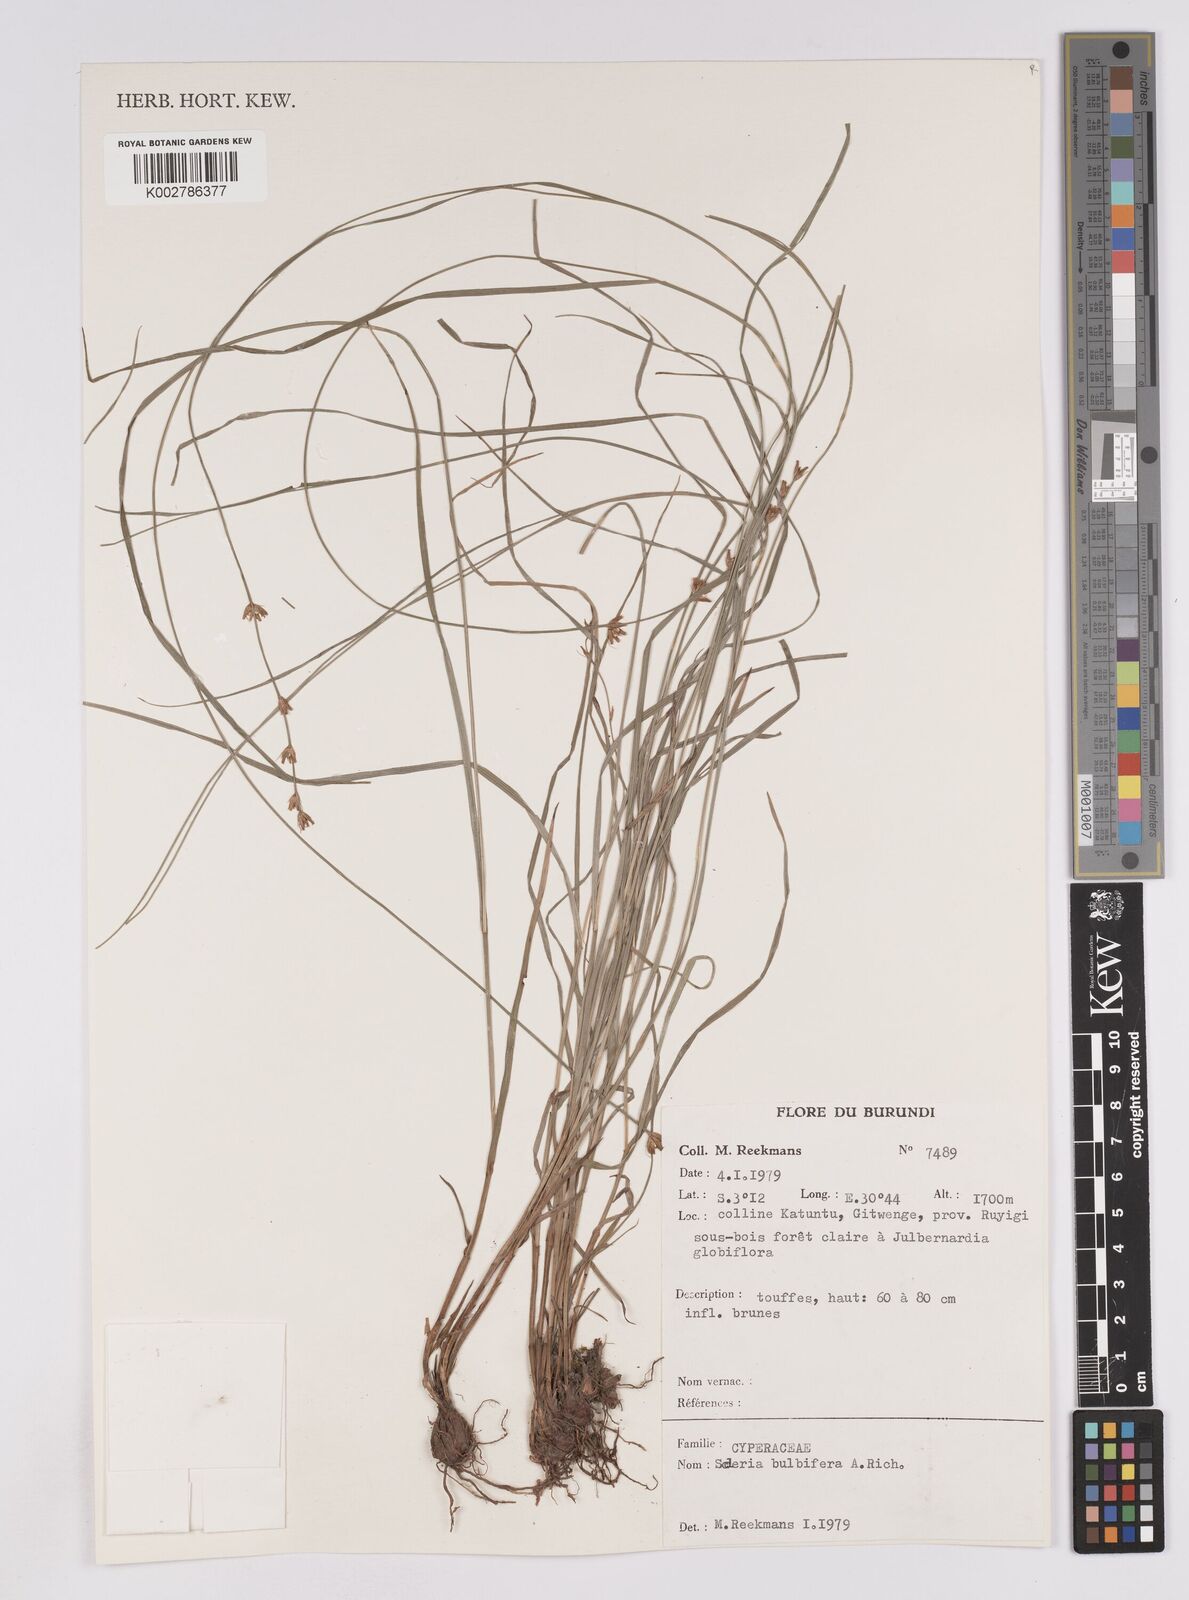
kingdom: Plantae
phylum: Tracheophyta
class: Liliopsida
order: Poales
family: Cyperaceae
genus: Scleria
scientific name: Scleria bulbifera
